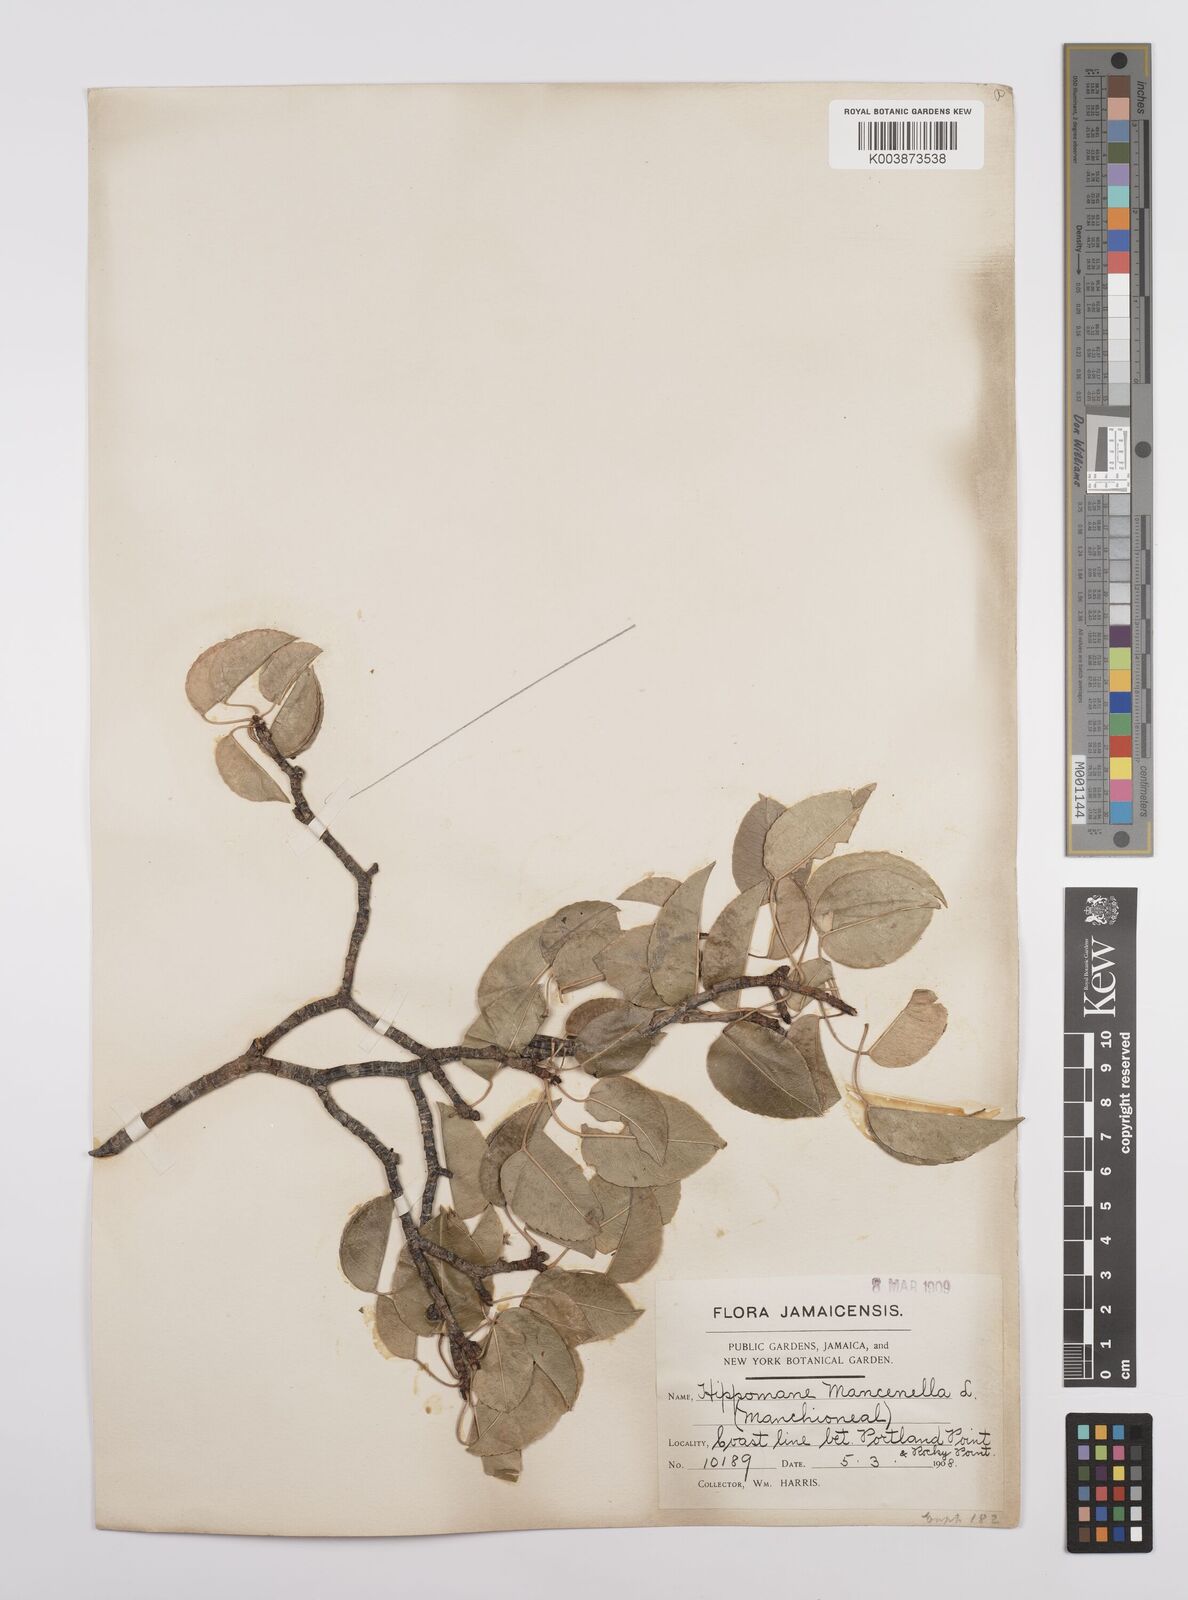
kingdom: Plantae
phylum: Tracheophyta
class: Magnoliopsida
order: Malpighiales
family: Euphorbiaceae
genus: Hippomane
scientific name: Hippomane mancinella
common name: Manchineel
